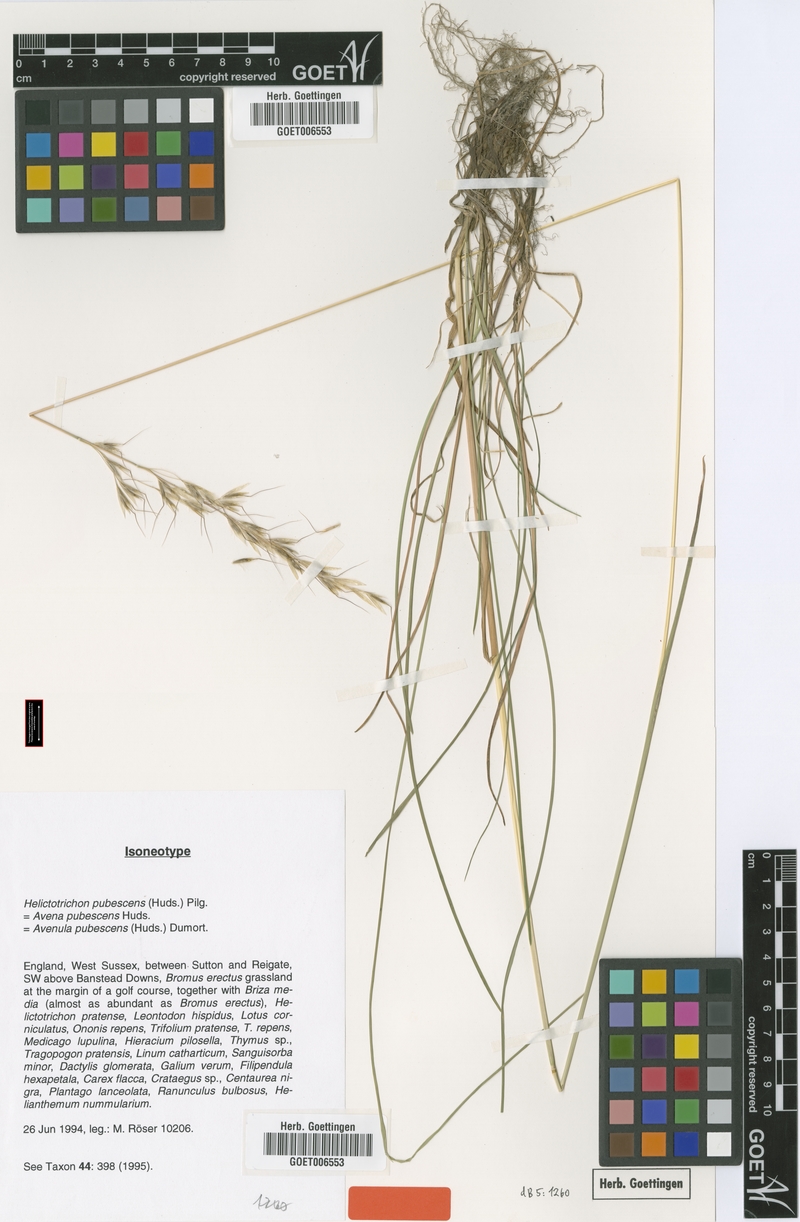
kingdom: Plantae
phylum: Tracheophyta
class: Liliopsida
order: Poales
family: Poaceae
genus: Avenula
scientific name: Avenula pubescens
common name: Downy alpine oatgrass
